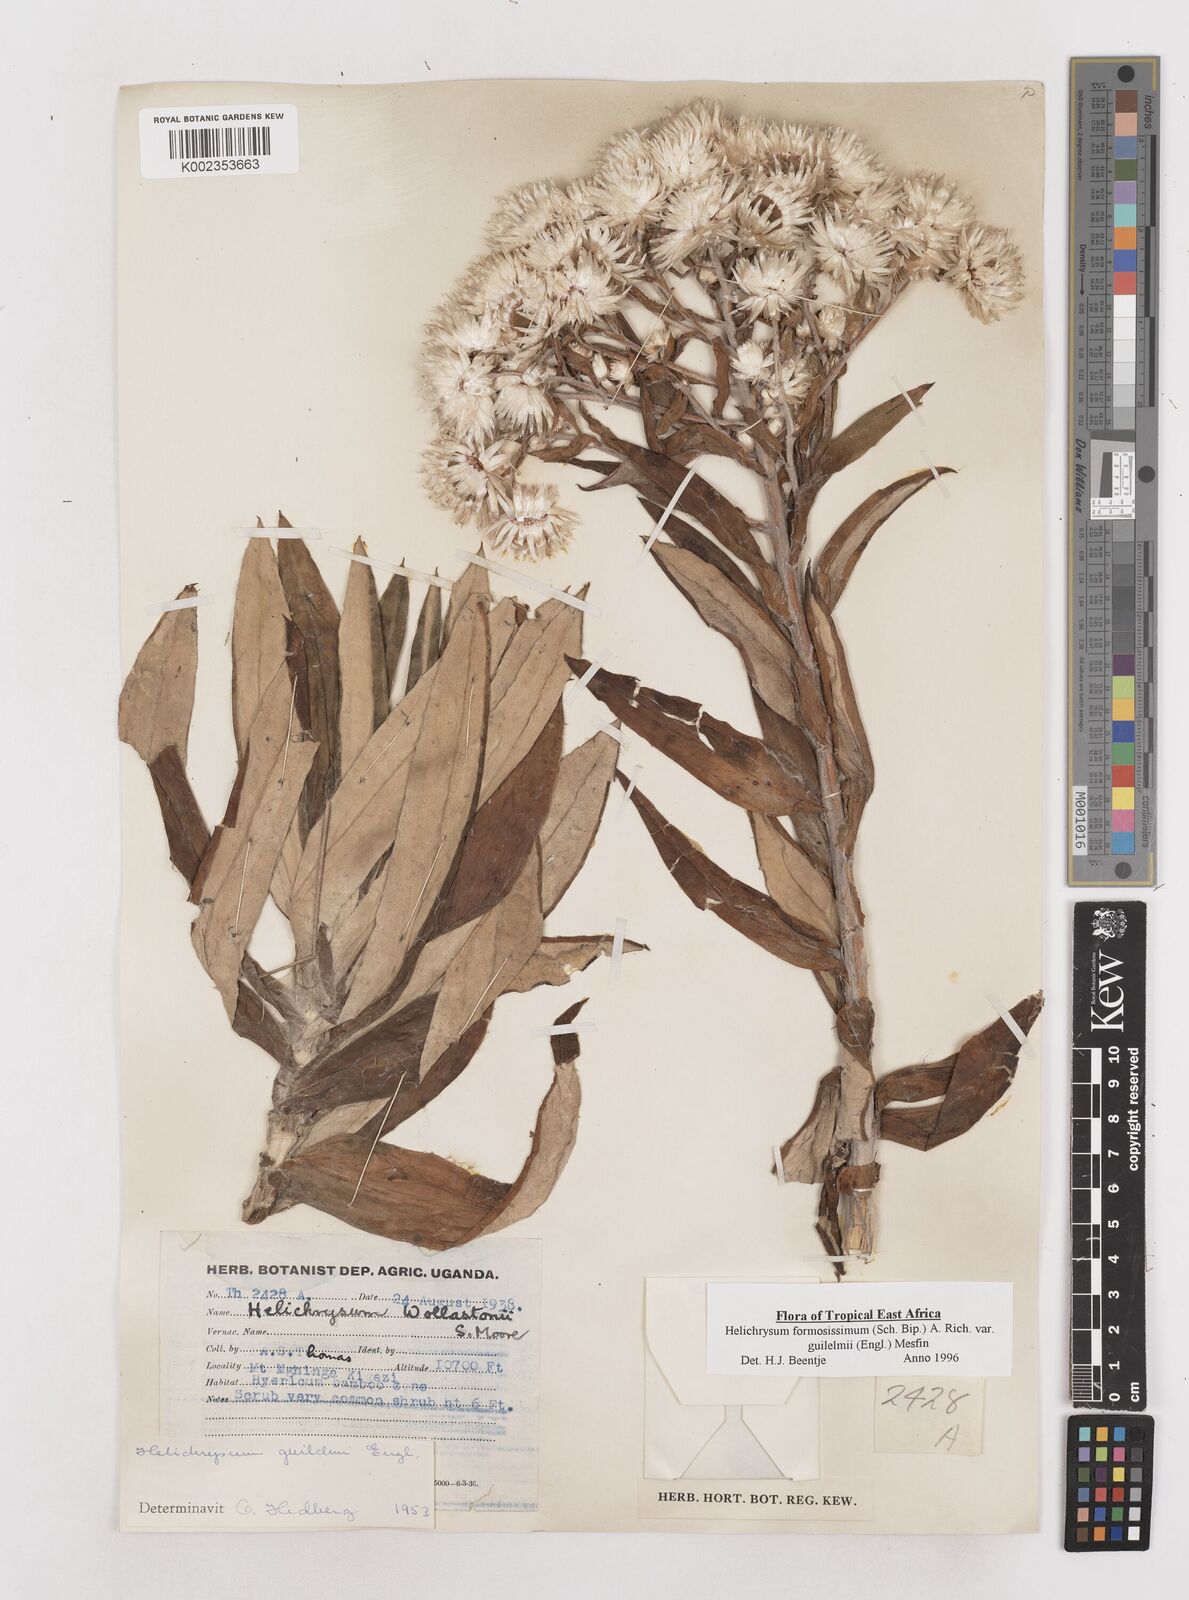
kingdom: Plantae
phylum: Tracheophyta
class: Magnoliopsida
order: Asterales
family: Asteraceae
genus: Helichrysum
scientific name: Helichrysum formosissimum
